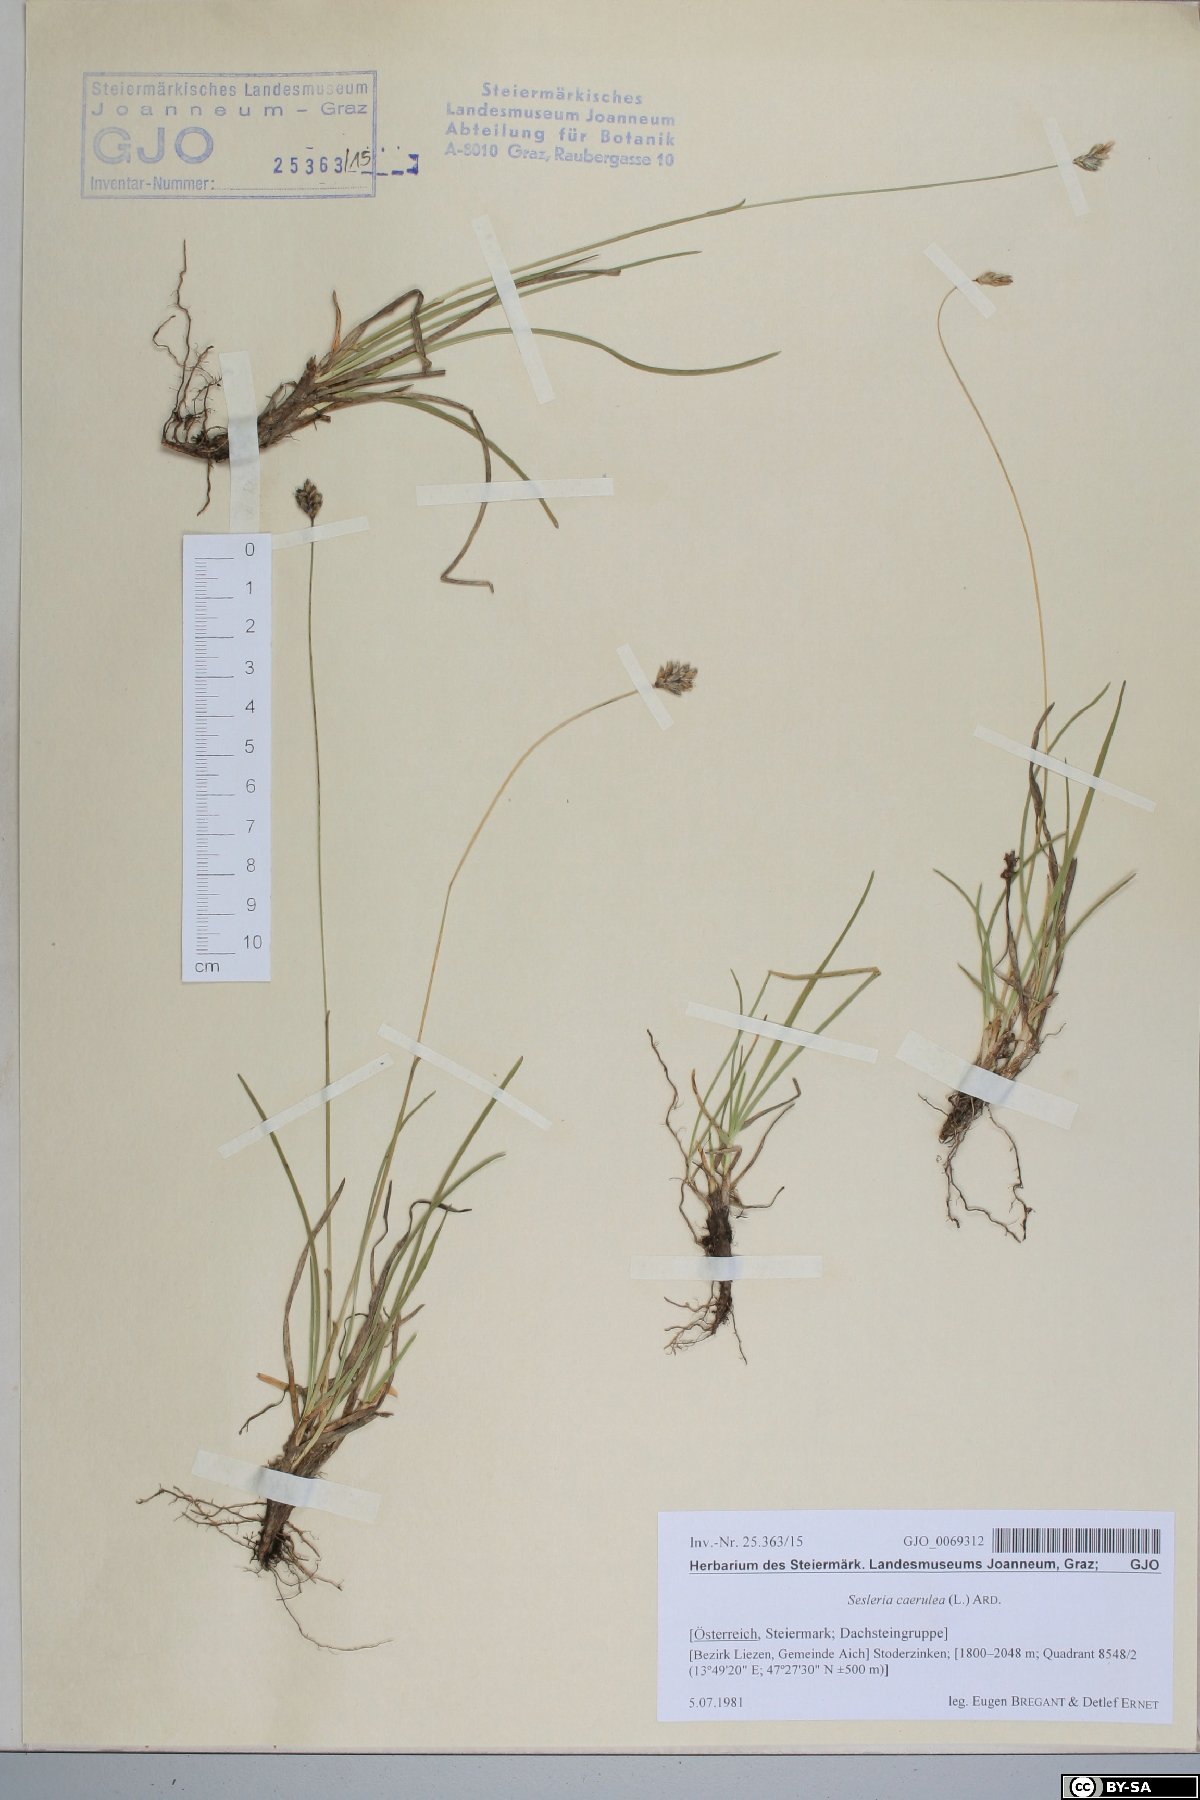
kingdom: Plantae
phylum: Tracheophyta
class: Liliopsida
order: Poales
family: Poaceae
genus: Sesleria
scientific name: Sesleria caerulea
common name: Blue moor-grass
